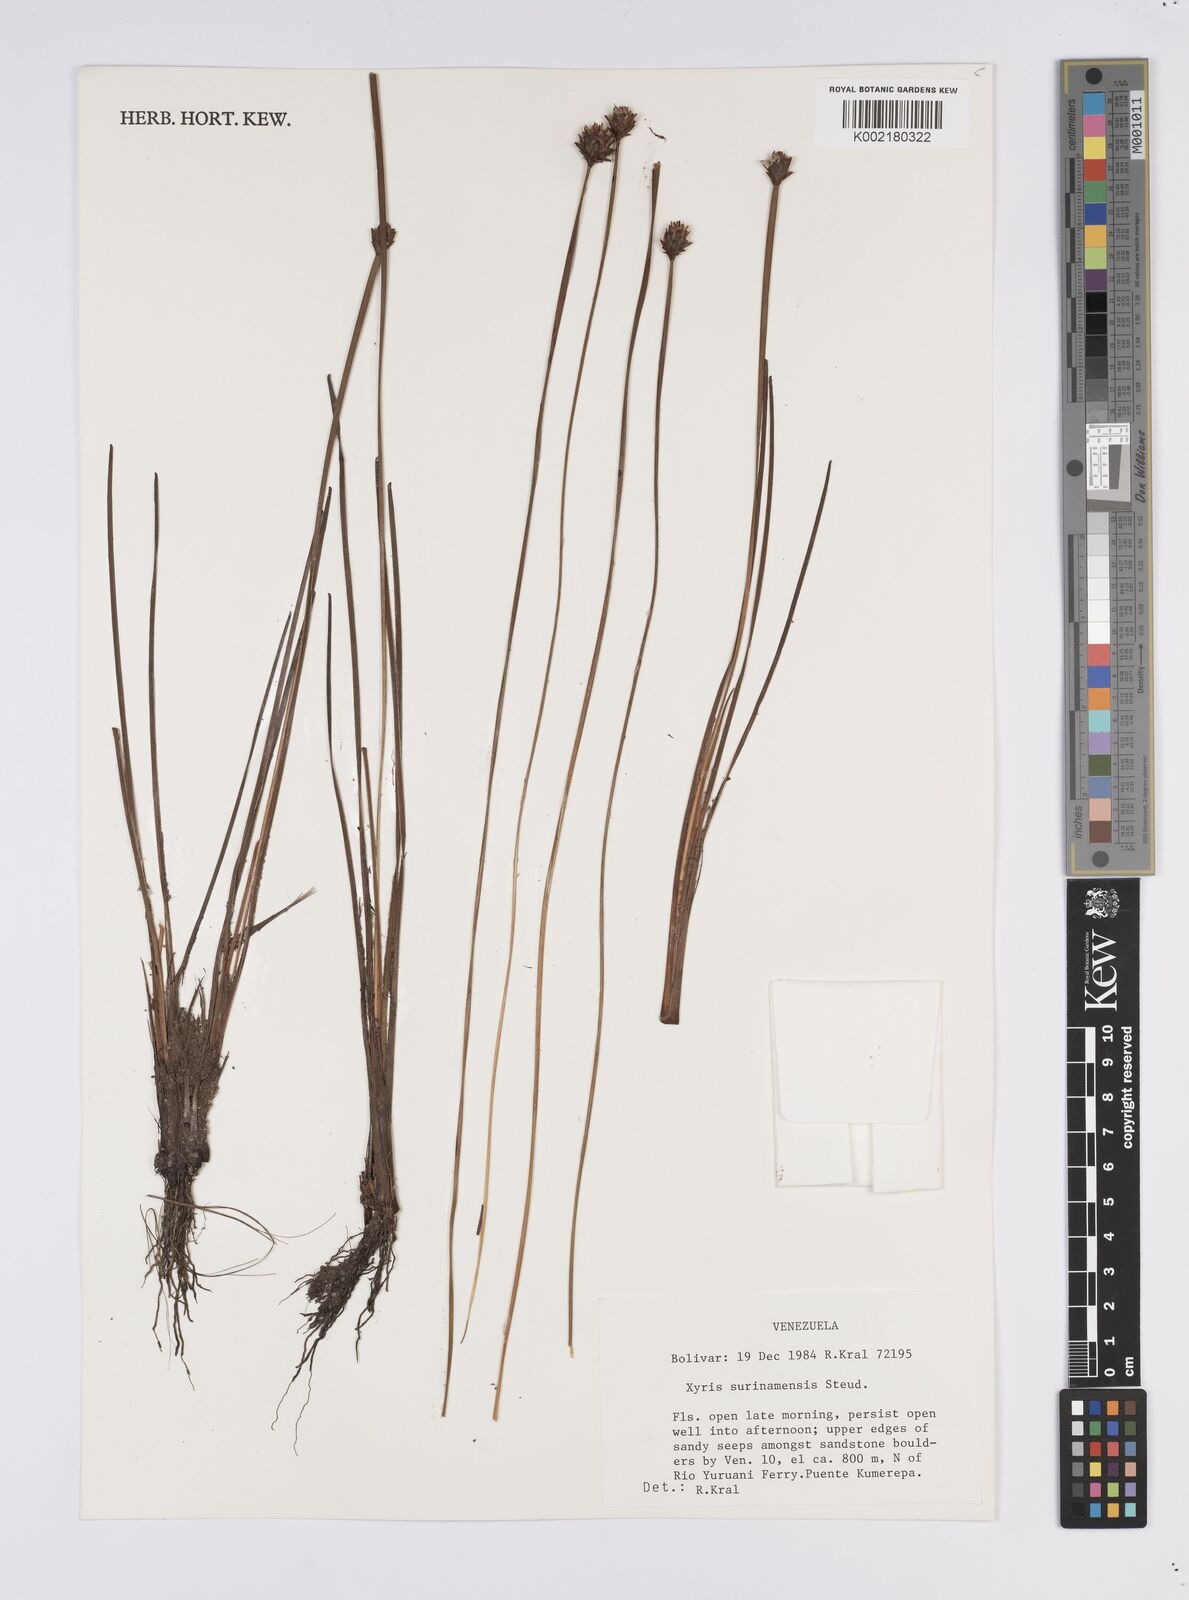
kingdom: Plantae
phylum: Tracheophyta
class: Liliopsida
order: Poales
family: Xyridaceae
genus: Xyris
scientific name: Xyris surinamensis
